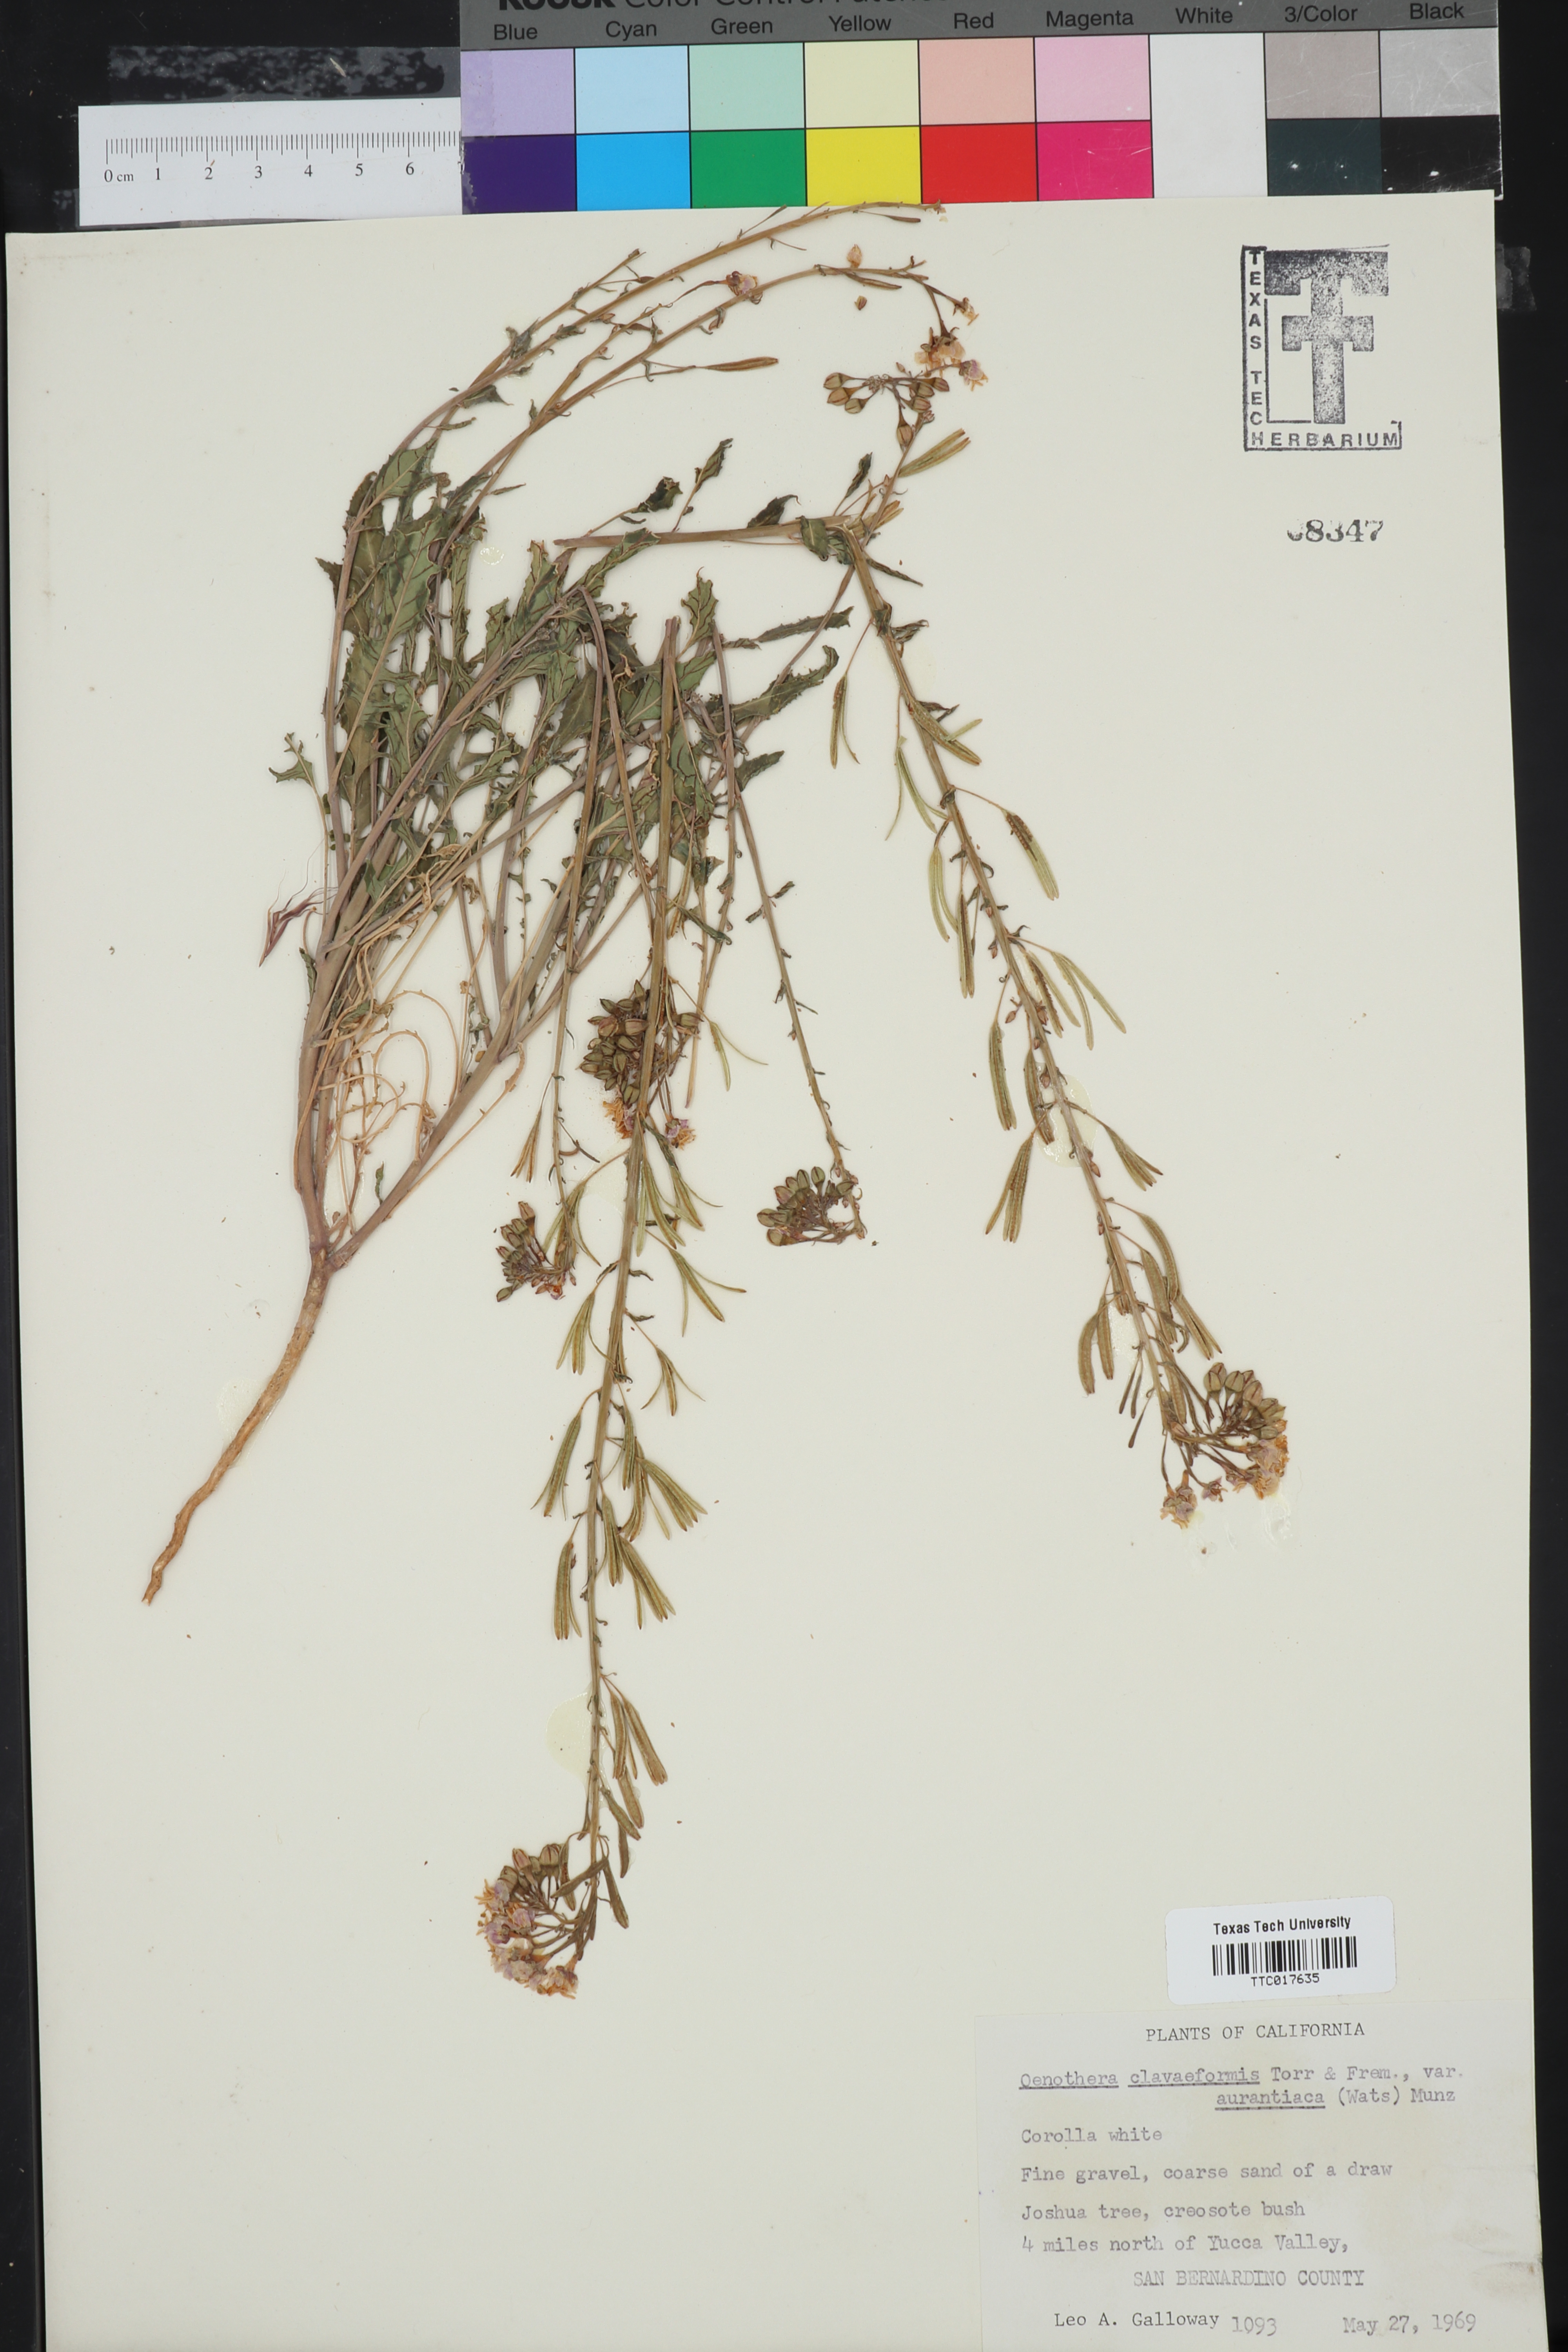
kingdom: Plantae
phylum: Tracheophyta
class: Magnoliopsida
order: Myrtales
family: Onagraceae
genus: Chylismia
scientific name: Chylismia claviformis
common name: Browneyes
